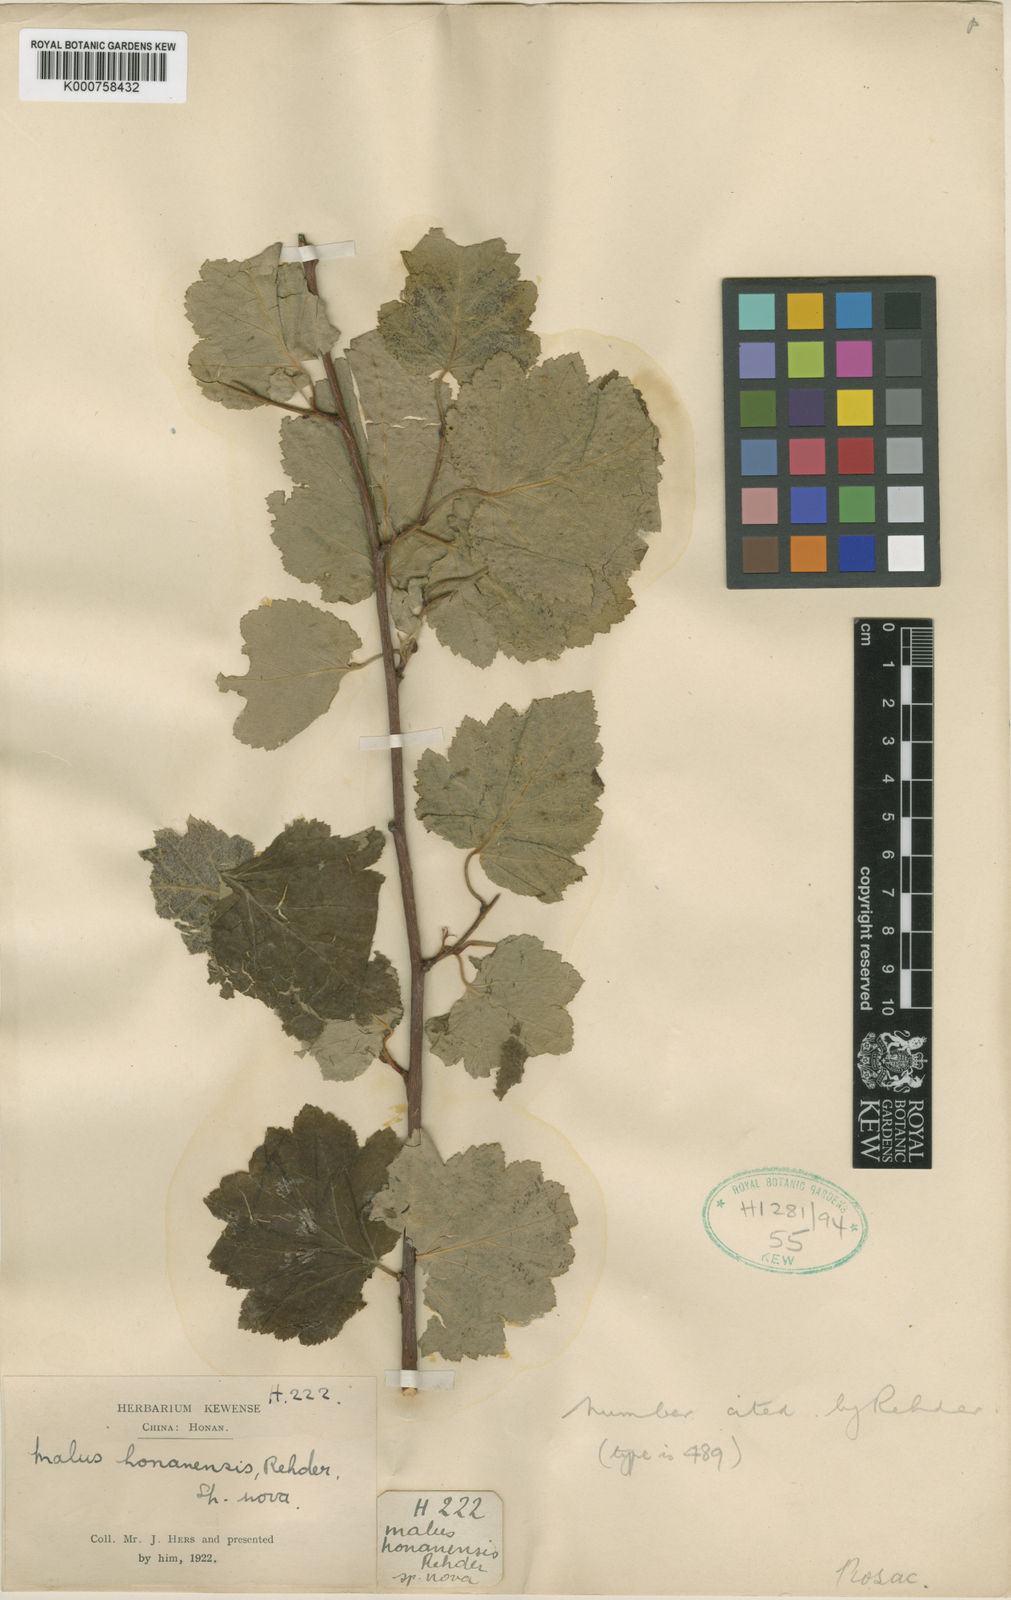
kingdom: Plantae
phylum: Tracheophyta
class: Magnoliopsida
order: Rosales
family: Rosaceae
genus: Malus
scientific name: Malus honanensis
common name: Honan crab apple
